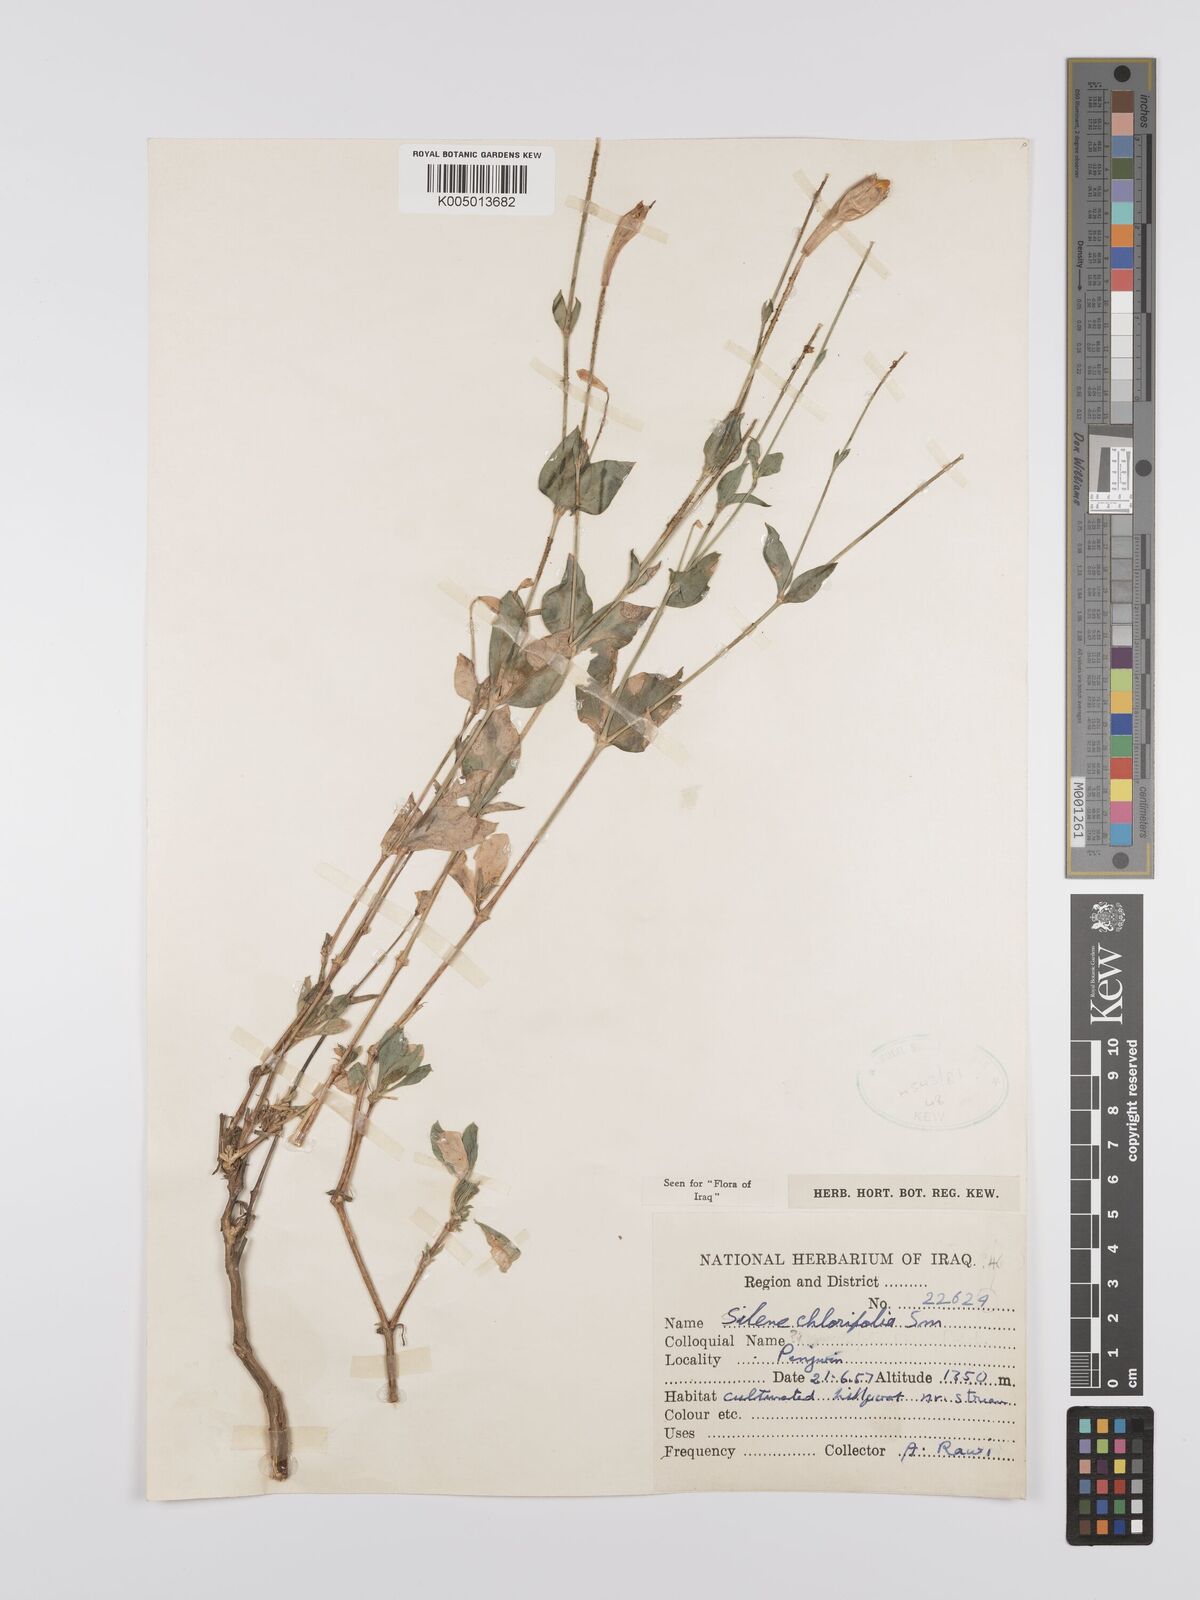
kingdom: Plantae
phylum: Tracheophyta
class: Magnoliopsida
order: Caryophyllales
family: Caryophyllaceae
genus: Silene
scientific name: Silene chlorifolia
